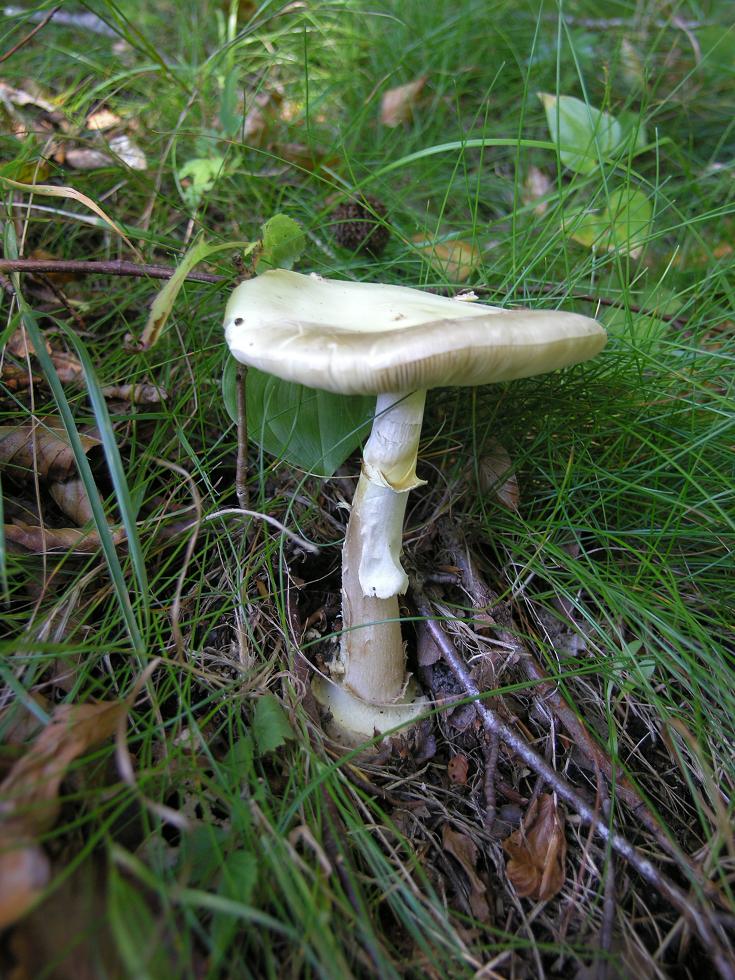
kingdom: Fungi
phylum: Basidiomycota
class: Agaricomycetes
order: Agaricales
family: Amanitaceae
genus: Amanita
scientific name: Amanita citrina
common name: kugleknoldet fluesvamp
